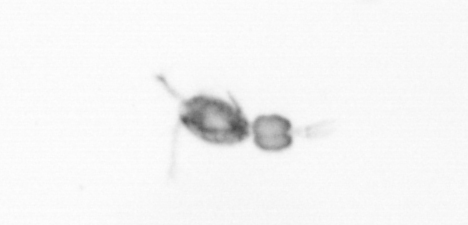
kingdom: Animalia
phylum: Arthropoda
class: Copepoda
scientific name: Copepoda
